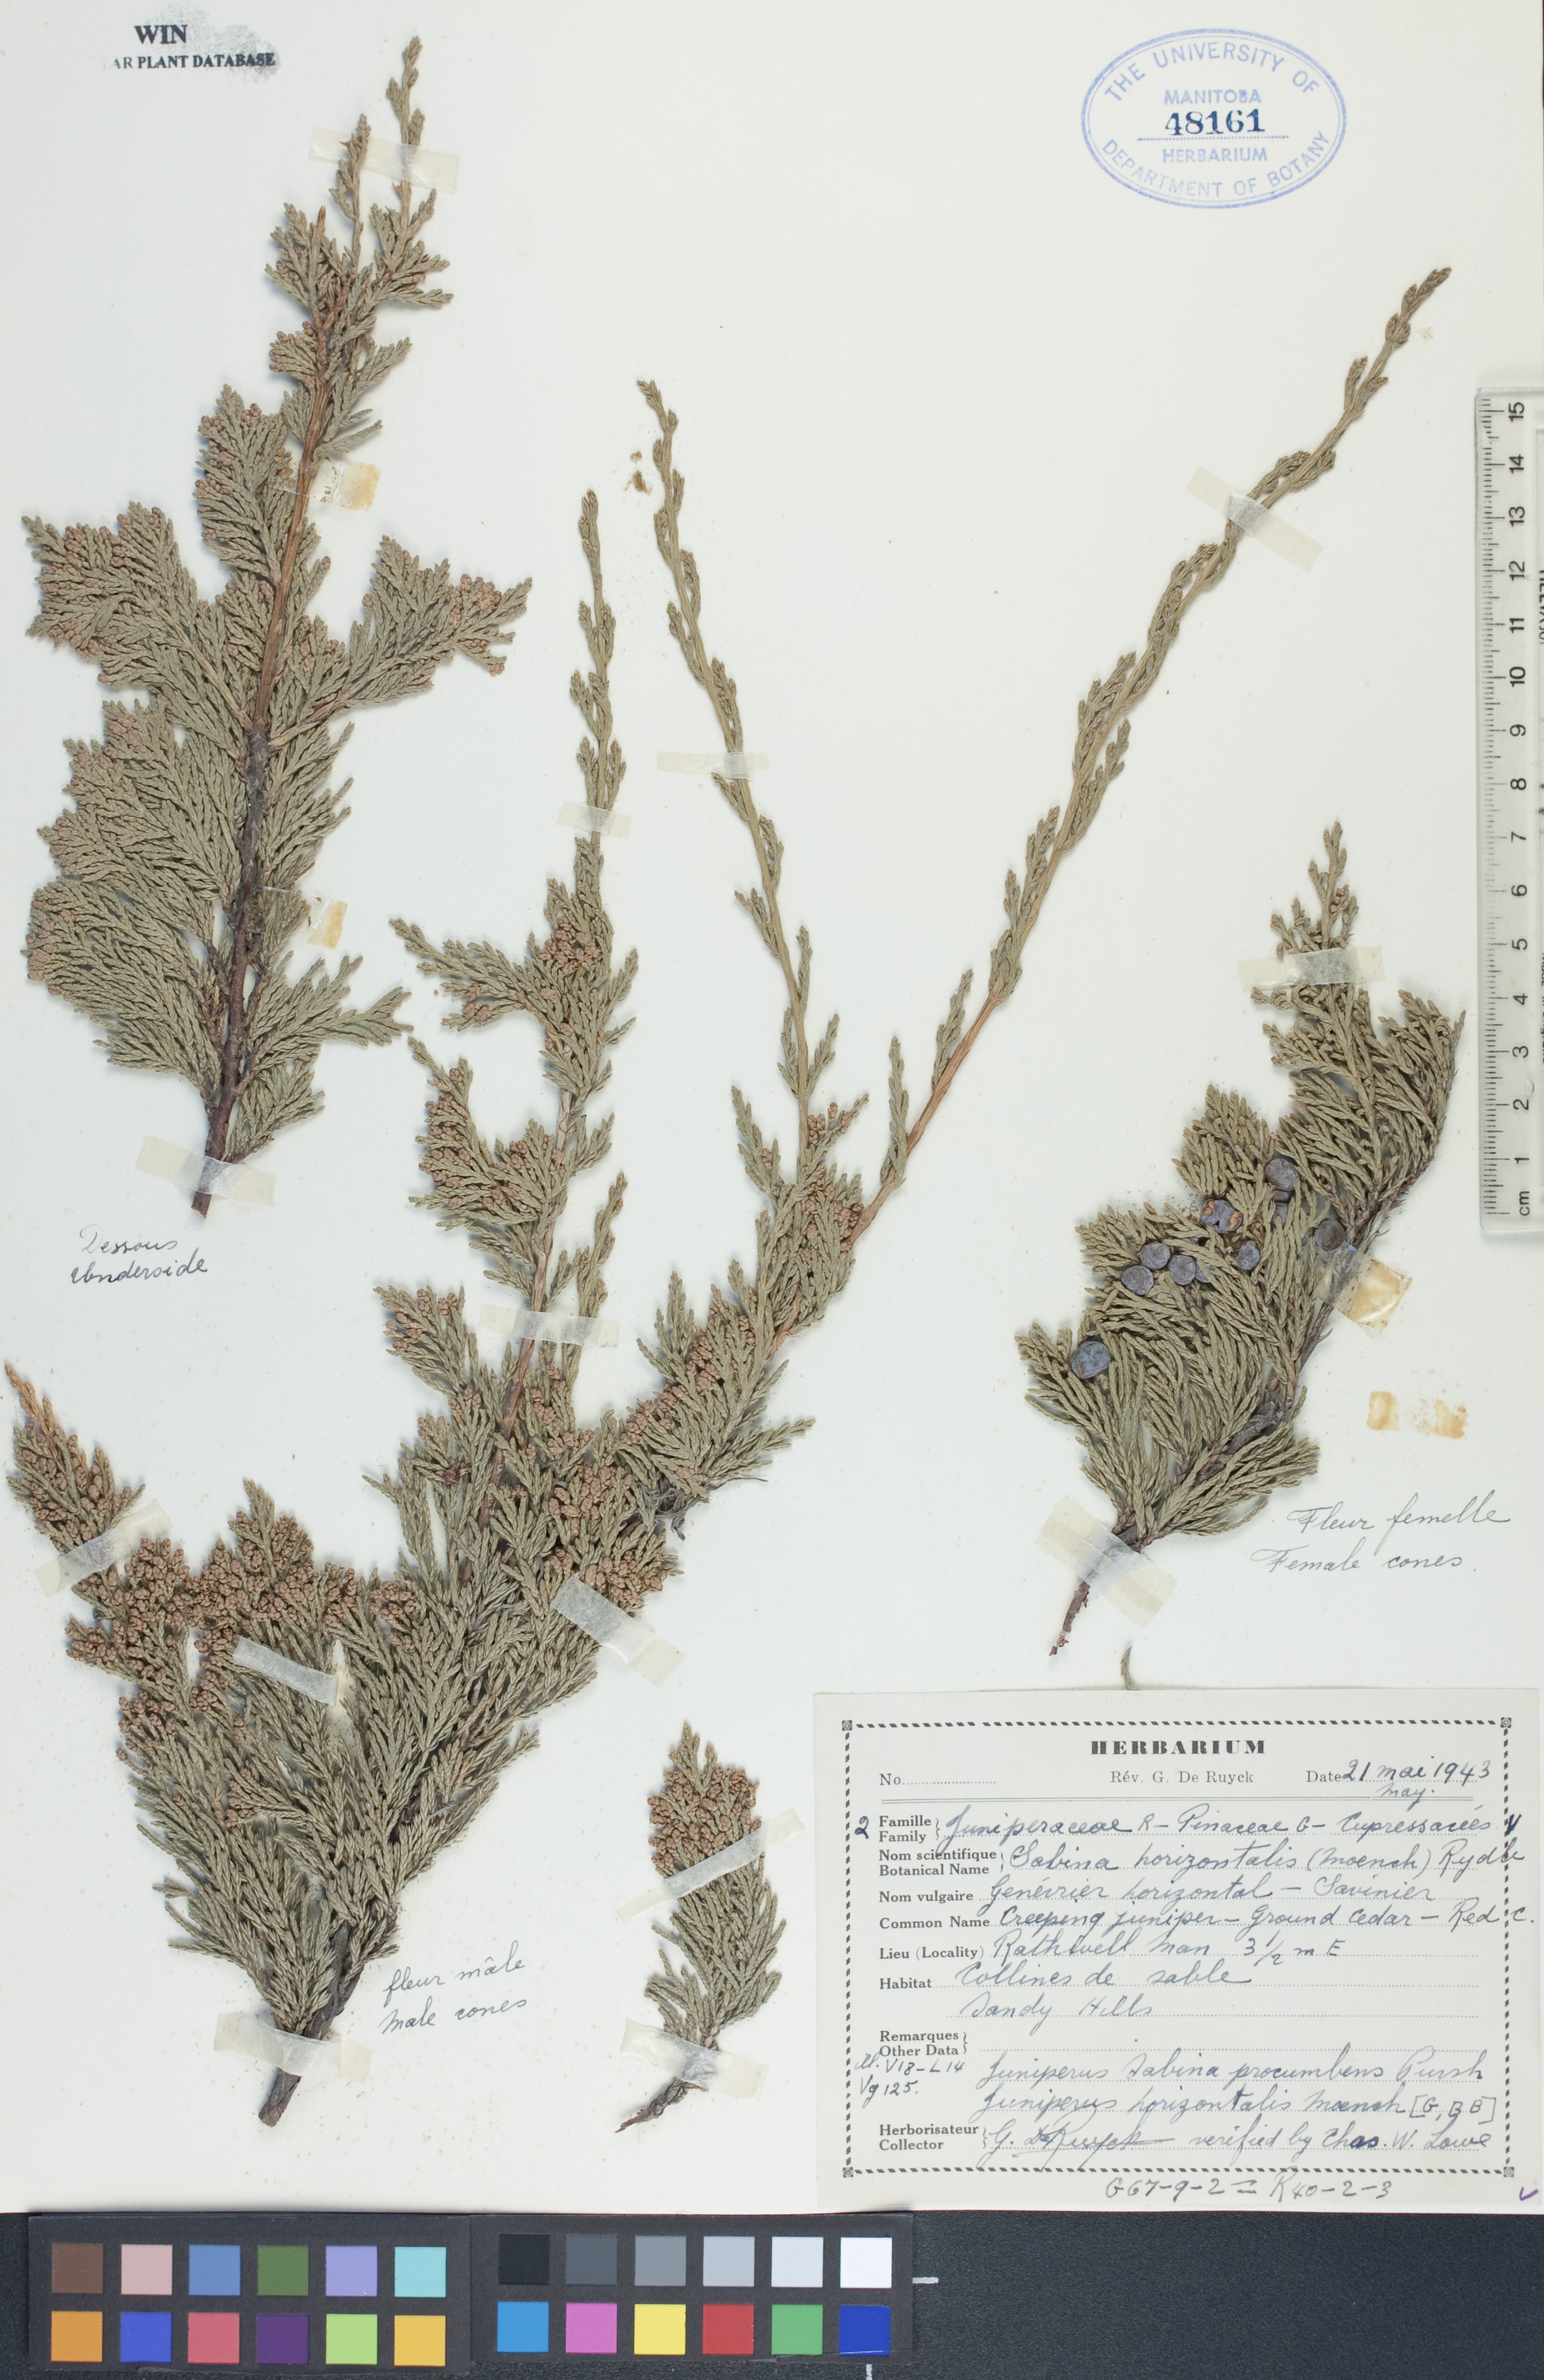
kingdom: Plantae
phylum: Tracheophyta
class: Pinopsida
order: Pinales
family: Cupressaceae
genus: Juniperus
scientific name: Juniperus horizontalis
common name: Creeping juniper
